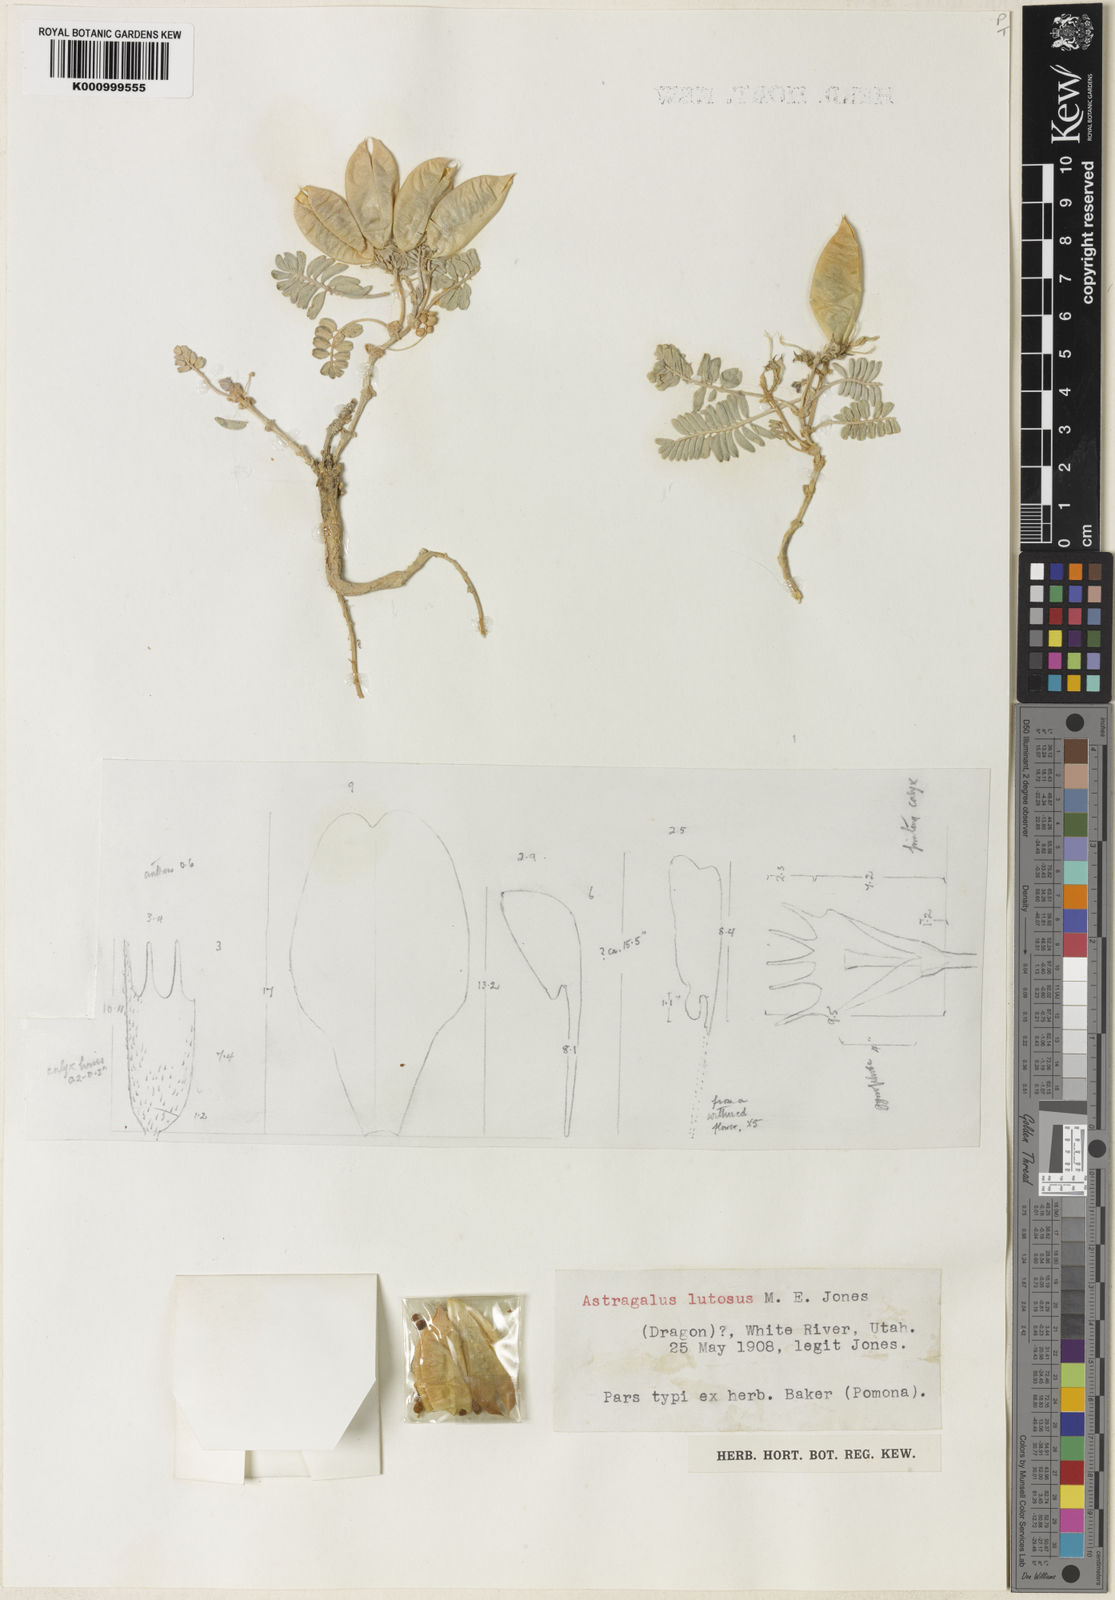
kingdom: Plantae
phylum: Tracheophyta
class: Magnoliopsida
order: Fabales
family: Fabaceae
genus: Astragalus
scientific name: Astragalus lutosus
